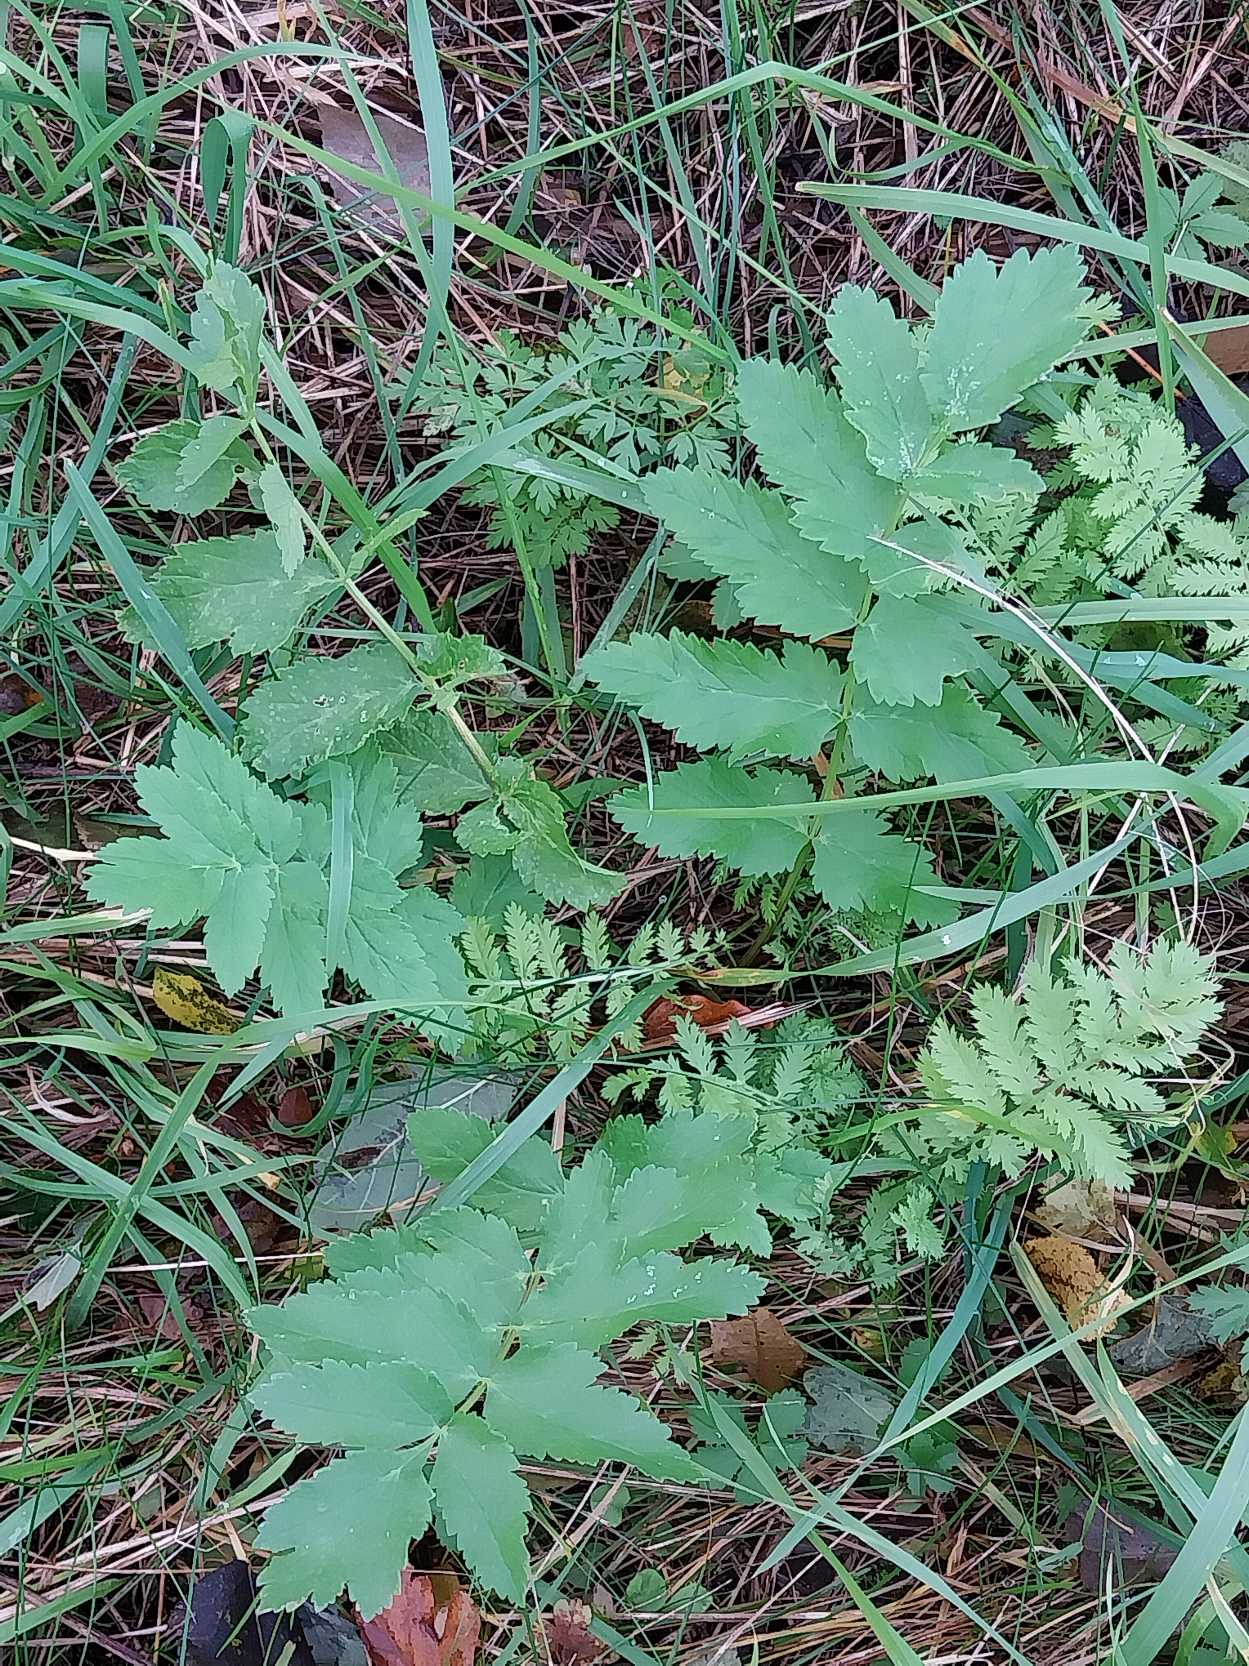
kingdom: Plantae
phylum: Tracheophyta
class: Magnoliopsida
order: Apiales
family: Apiaceae
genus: Pastinaca
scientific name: Pastinaca sativa
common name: Pastinak
